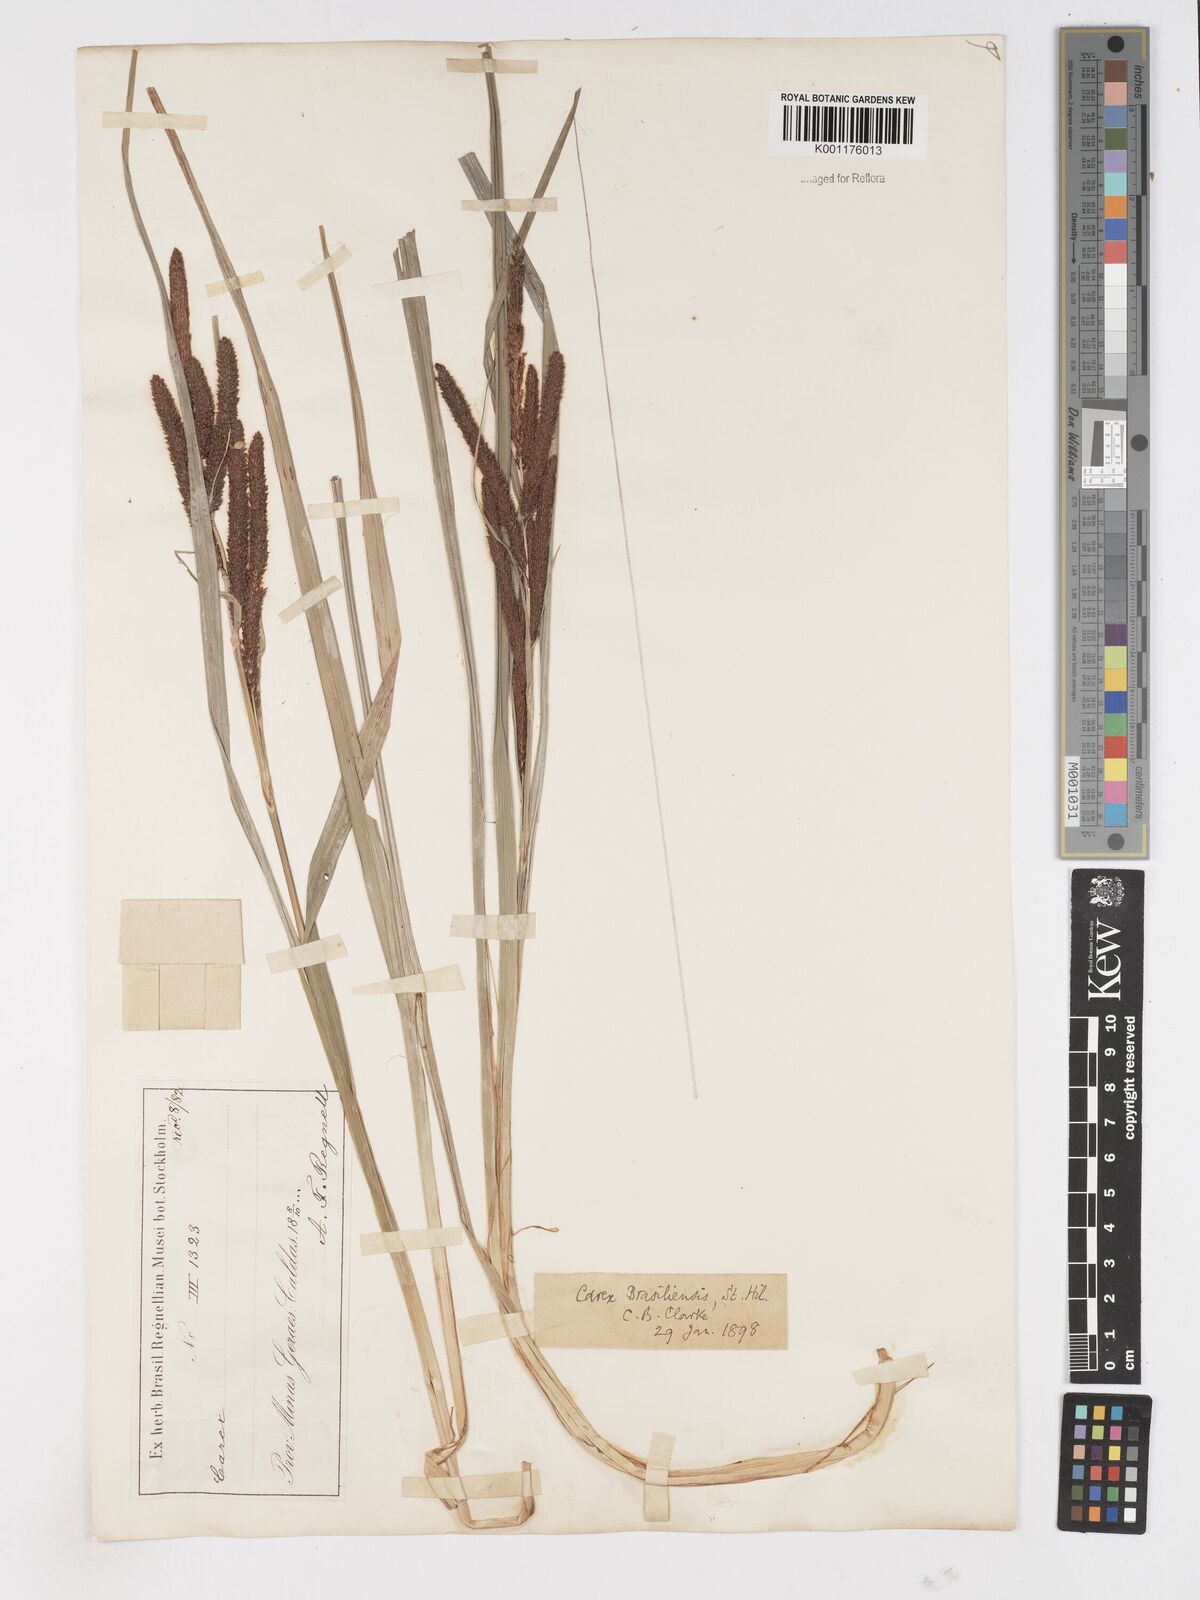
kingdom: Plantae
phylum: Tracheophyta
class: Liliopsida
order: Poales
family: Cyperaceae
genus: Carex
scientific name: Carex brasiliensis
